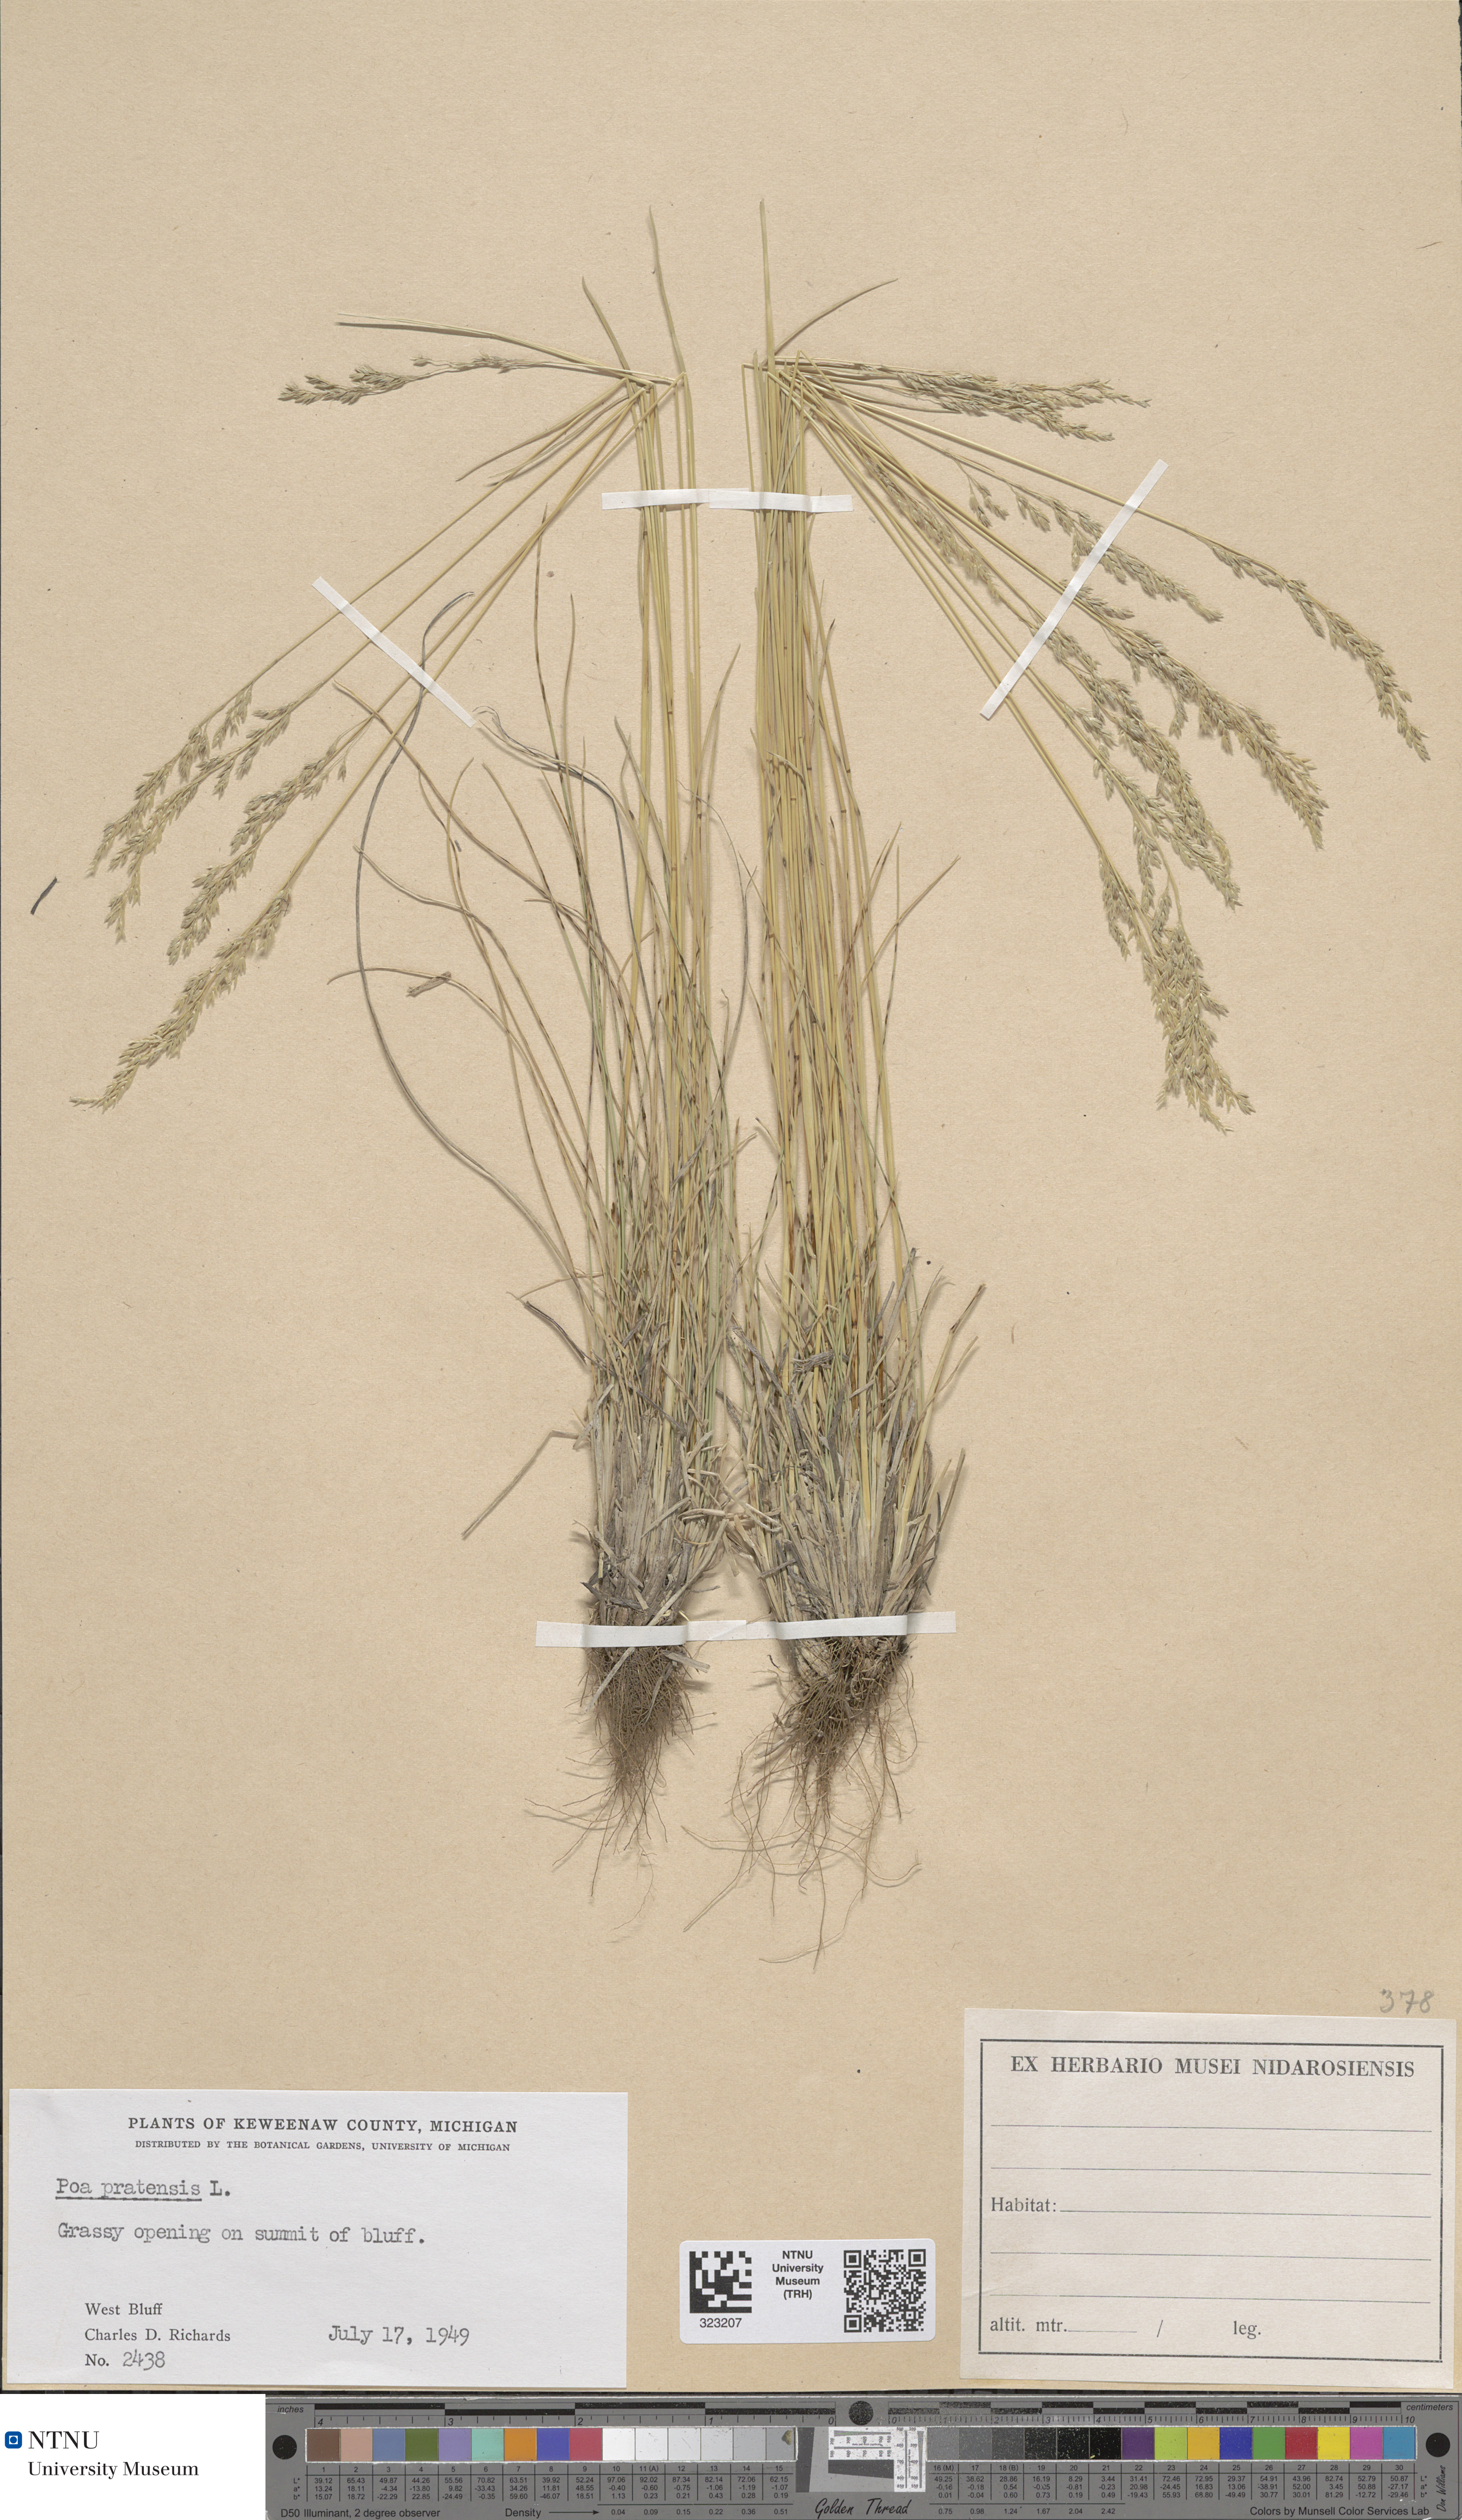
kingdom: Plantae
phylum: Tracheophyta
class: Liliopsida
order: Poales
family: Poaceae
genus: Poa
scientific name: Poa pratensis
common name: Kentucky bluegrass
